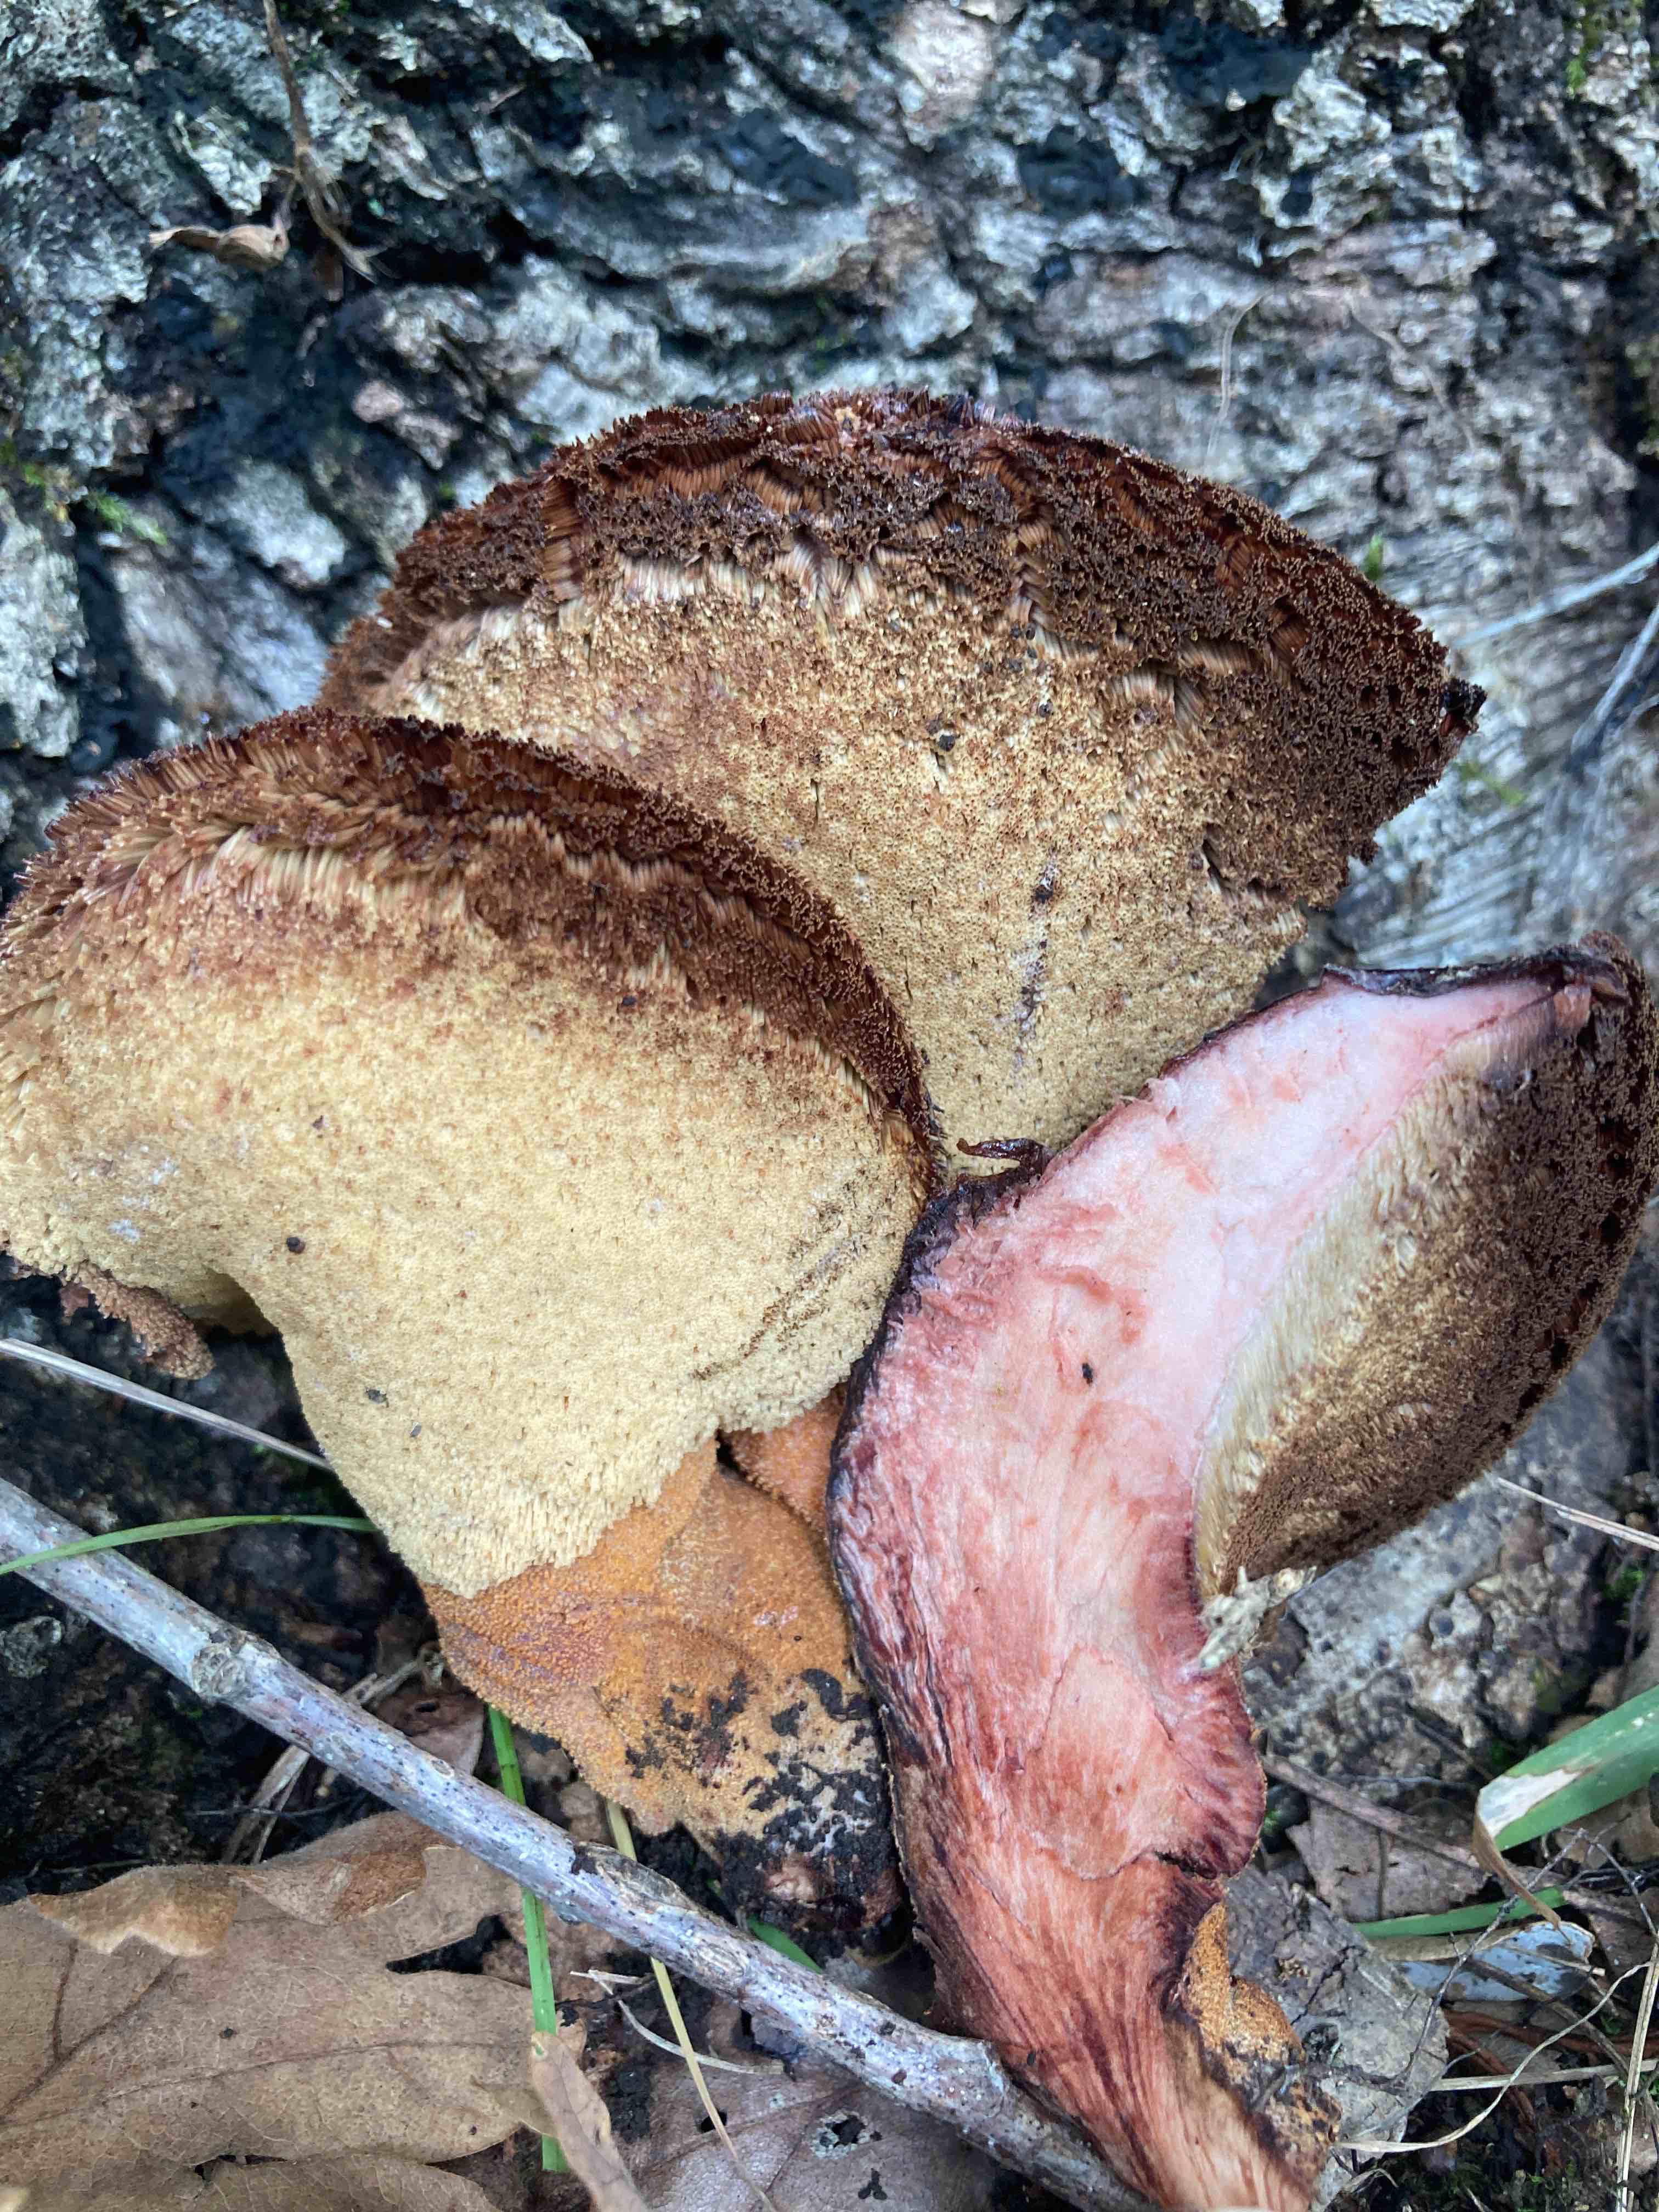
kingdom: Fungi
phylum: Basidiomycota
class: Agaricomycetes
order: Agaricales
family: Fistulinaceae
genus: Fistulina
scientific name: Fistulina hepatica
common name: oksetunge
